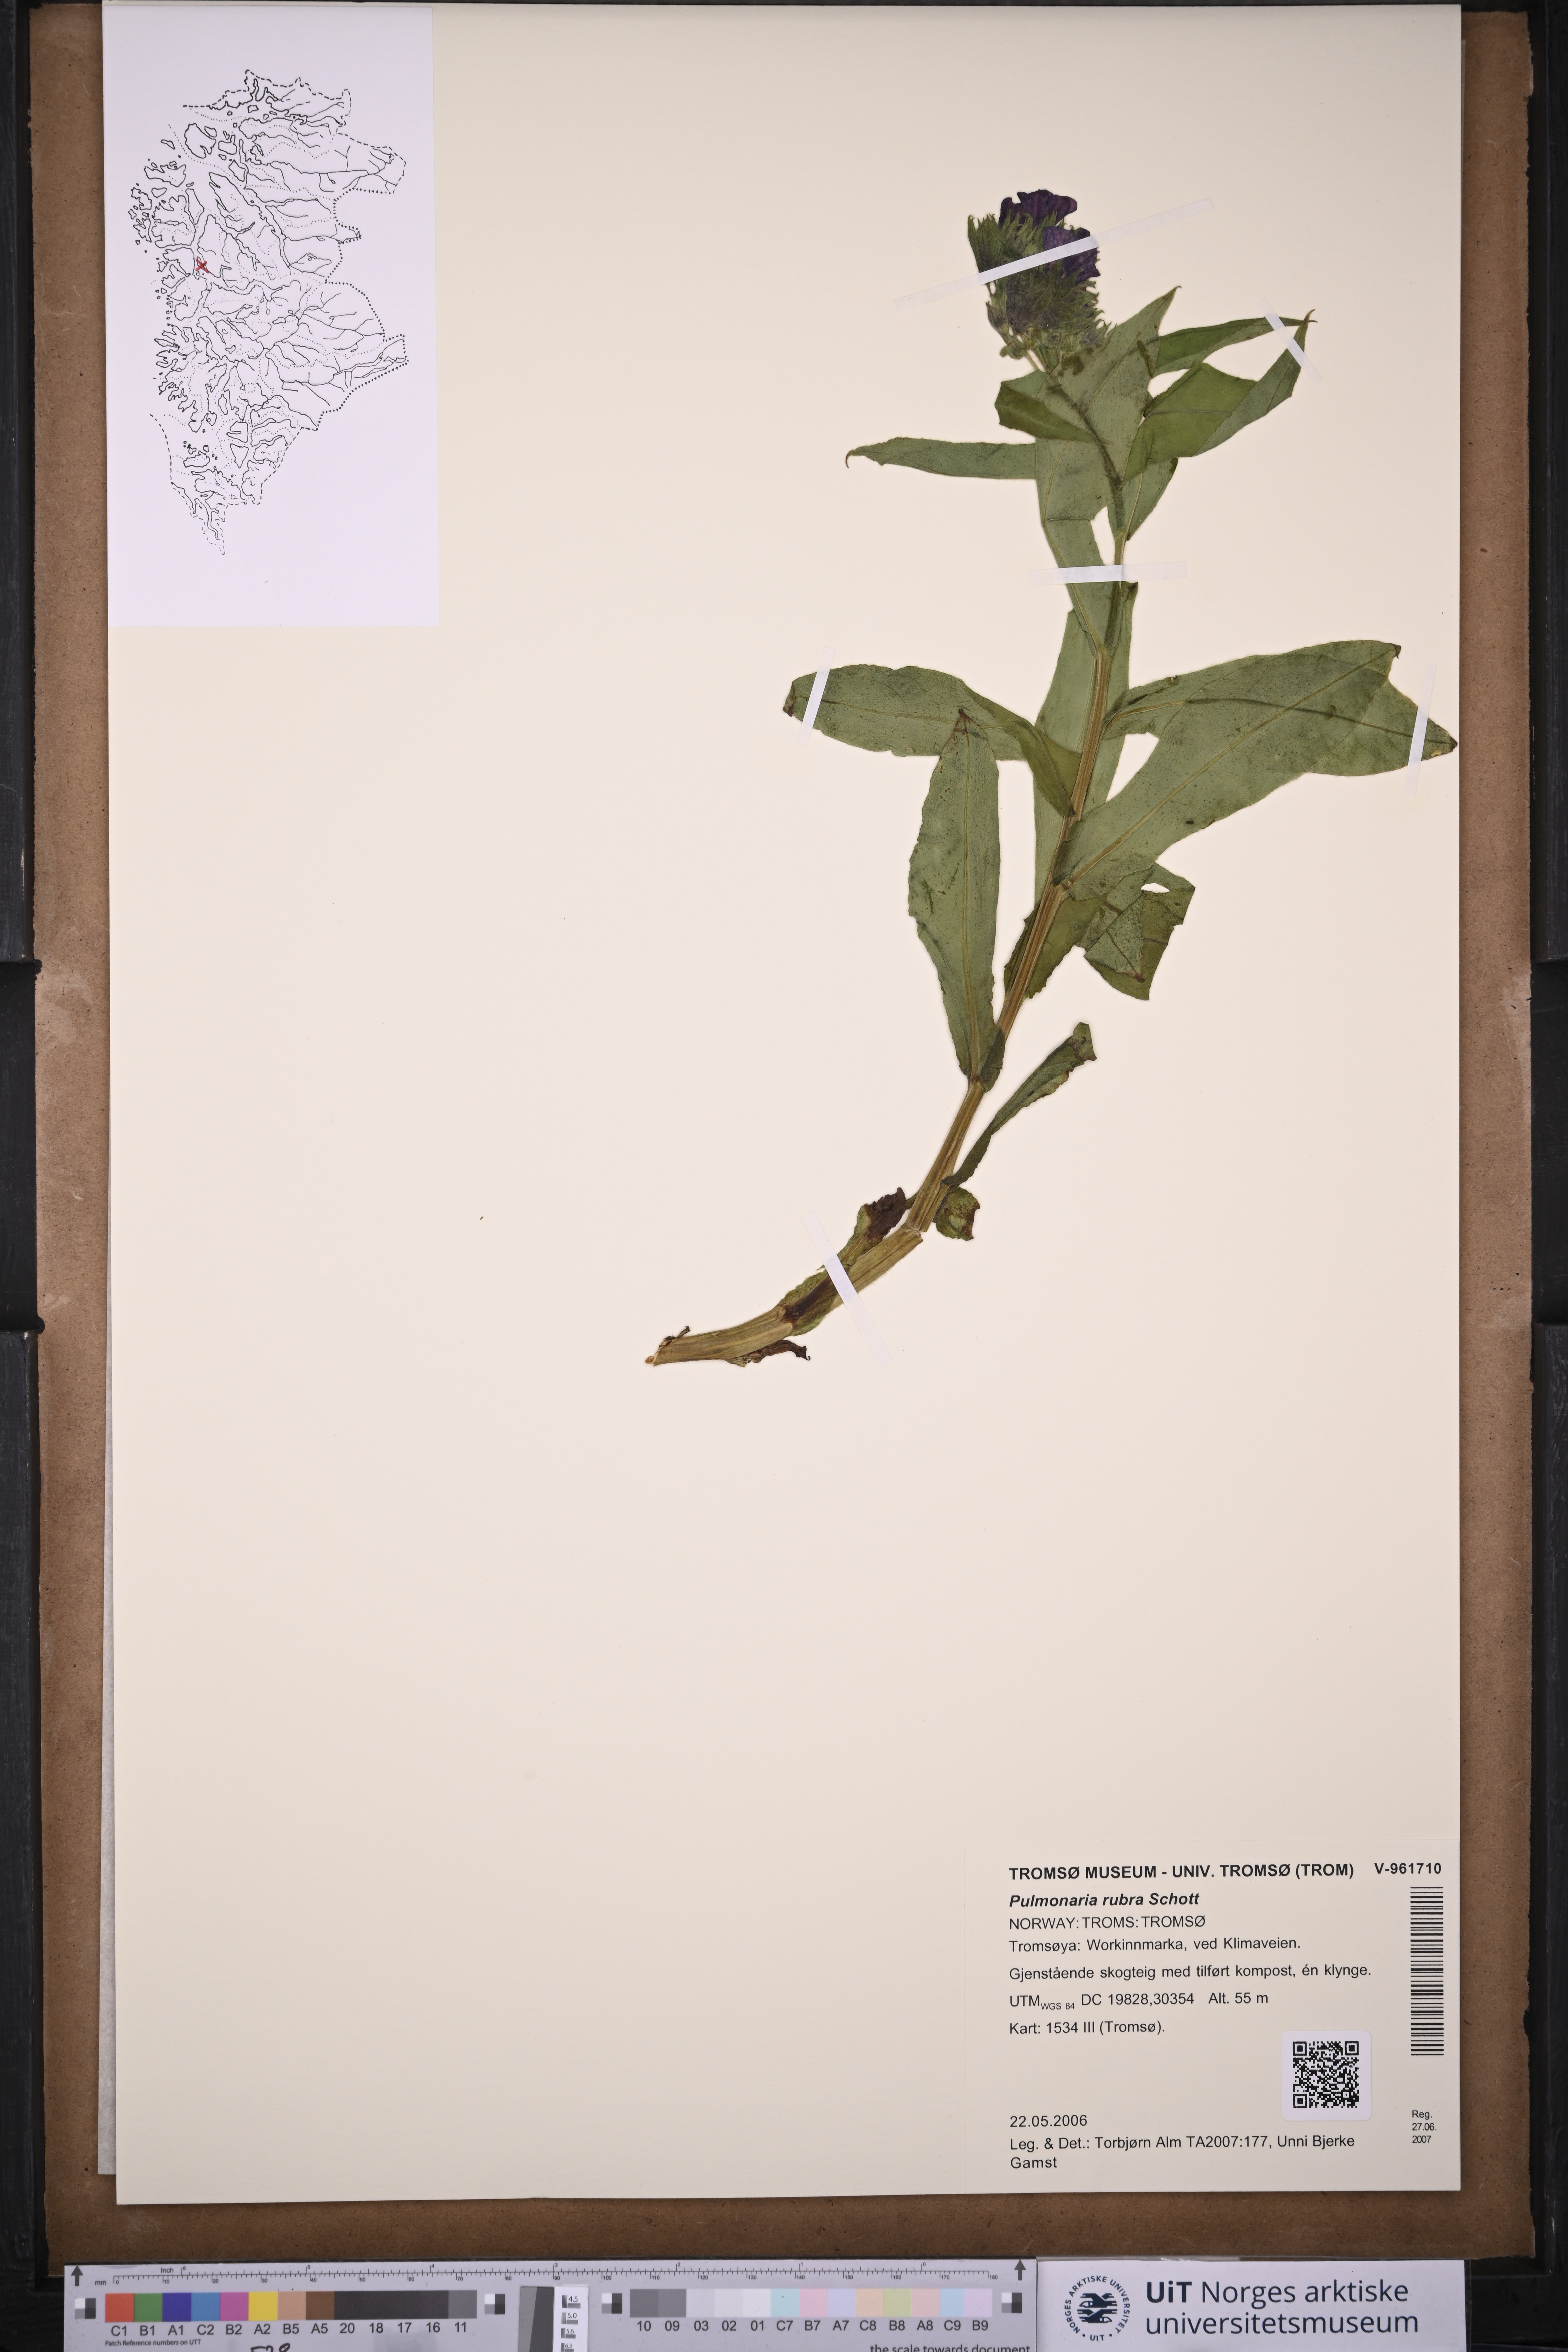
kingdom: Plantae
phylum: Tracheophyta
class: Magnoliopsida
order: Boraginales
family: Boraginaceae
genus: Pulmonaria
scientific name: Pulmonaria rubra
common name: Red lungwort
